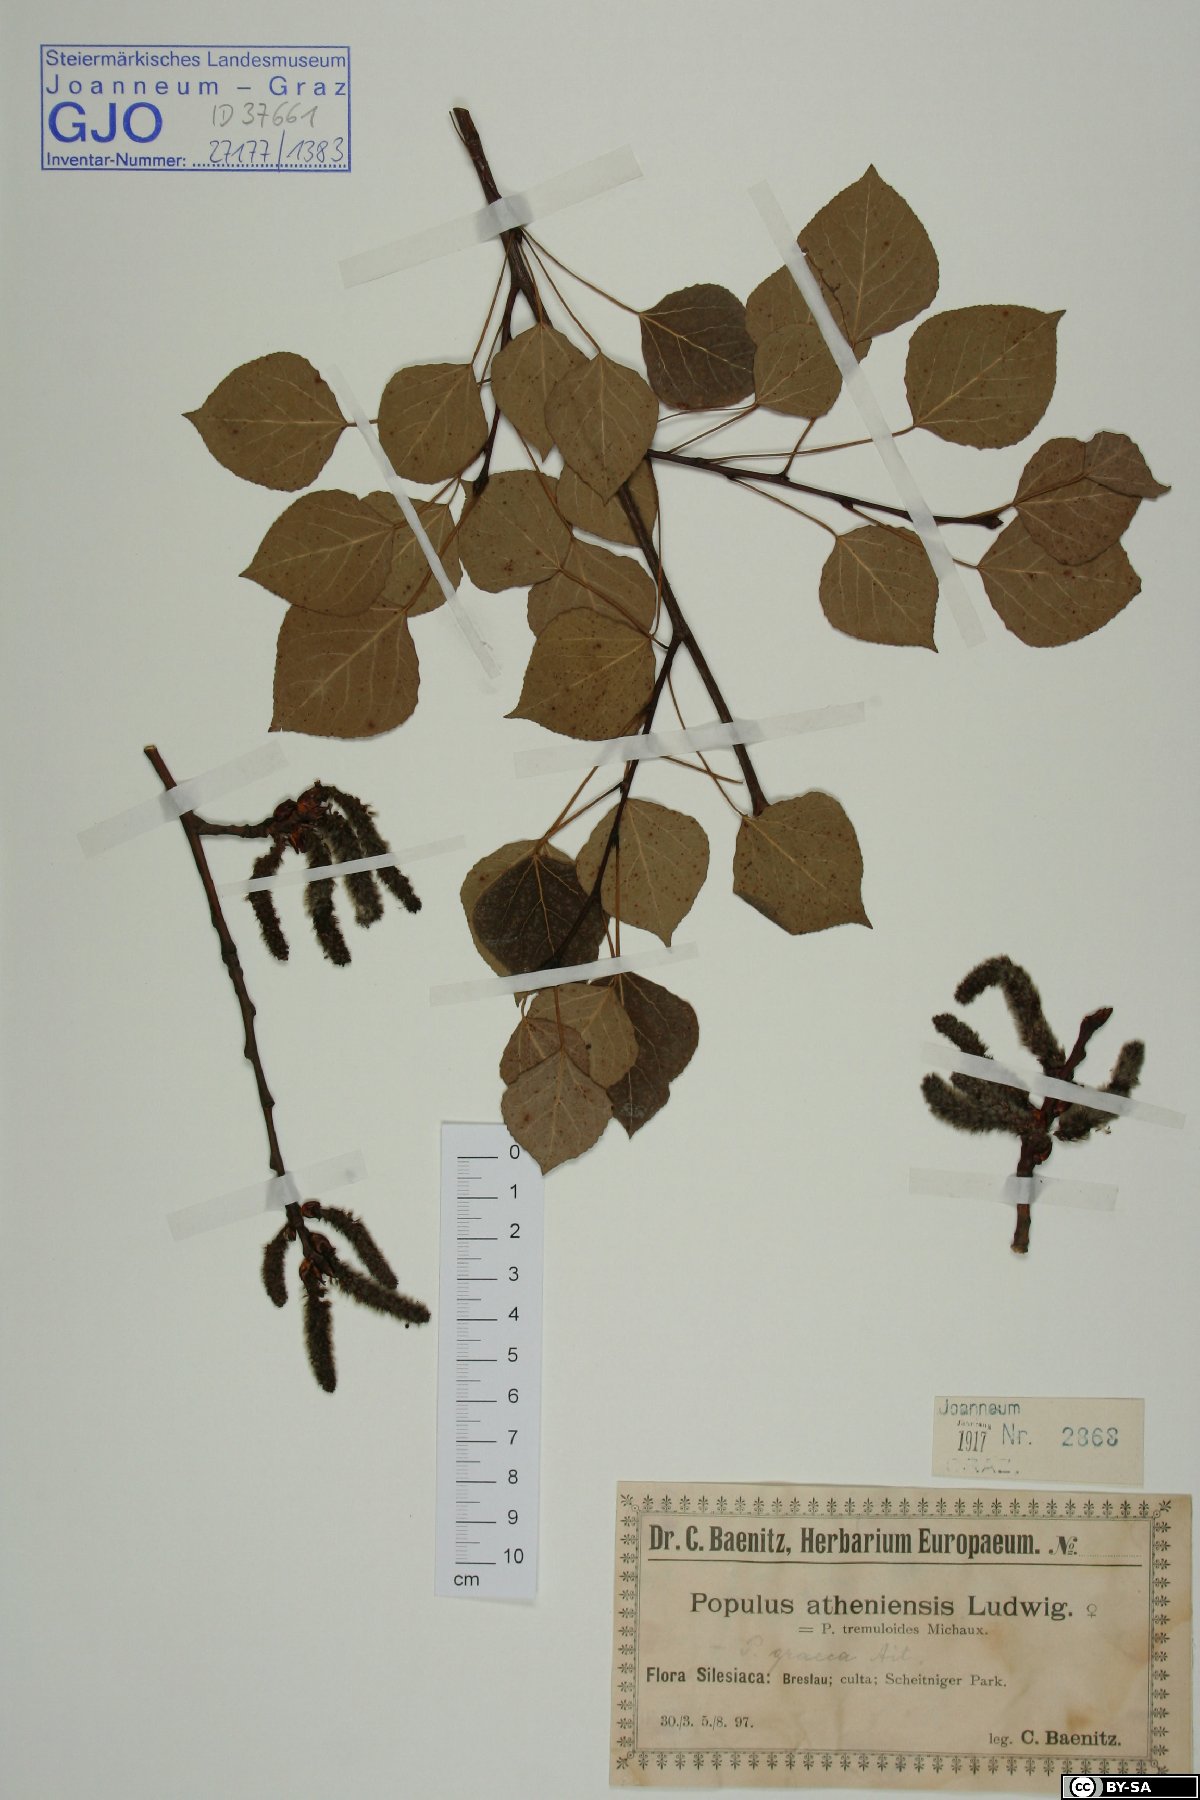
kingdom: Plantae
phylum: Tracheophyta
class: Magnoliopsida
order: Malpighiales
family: Salicaceae
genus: Populus
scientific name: Populus tremuloides
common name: Quaking aspen
